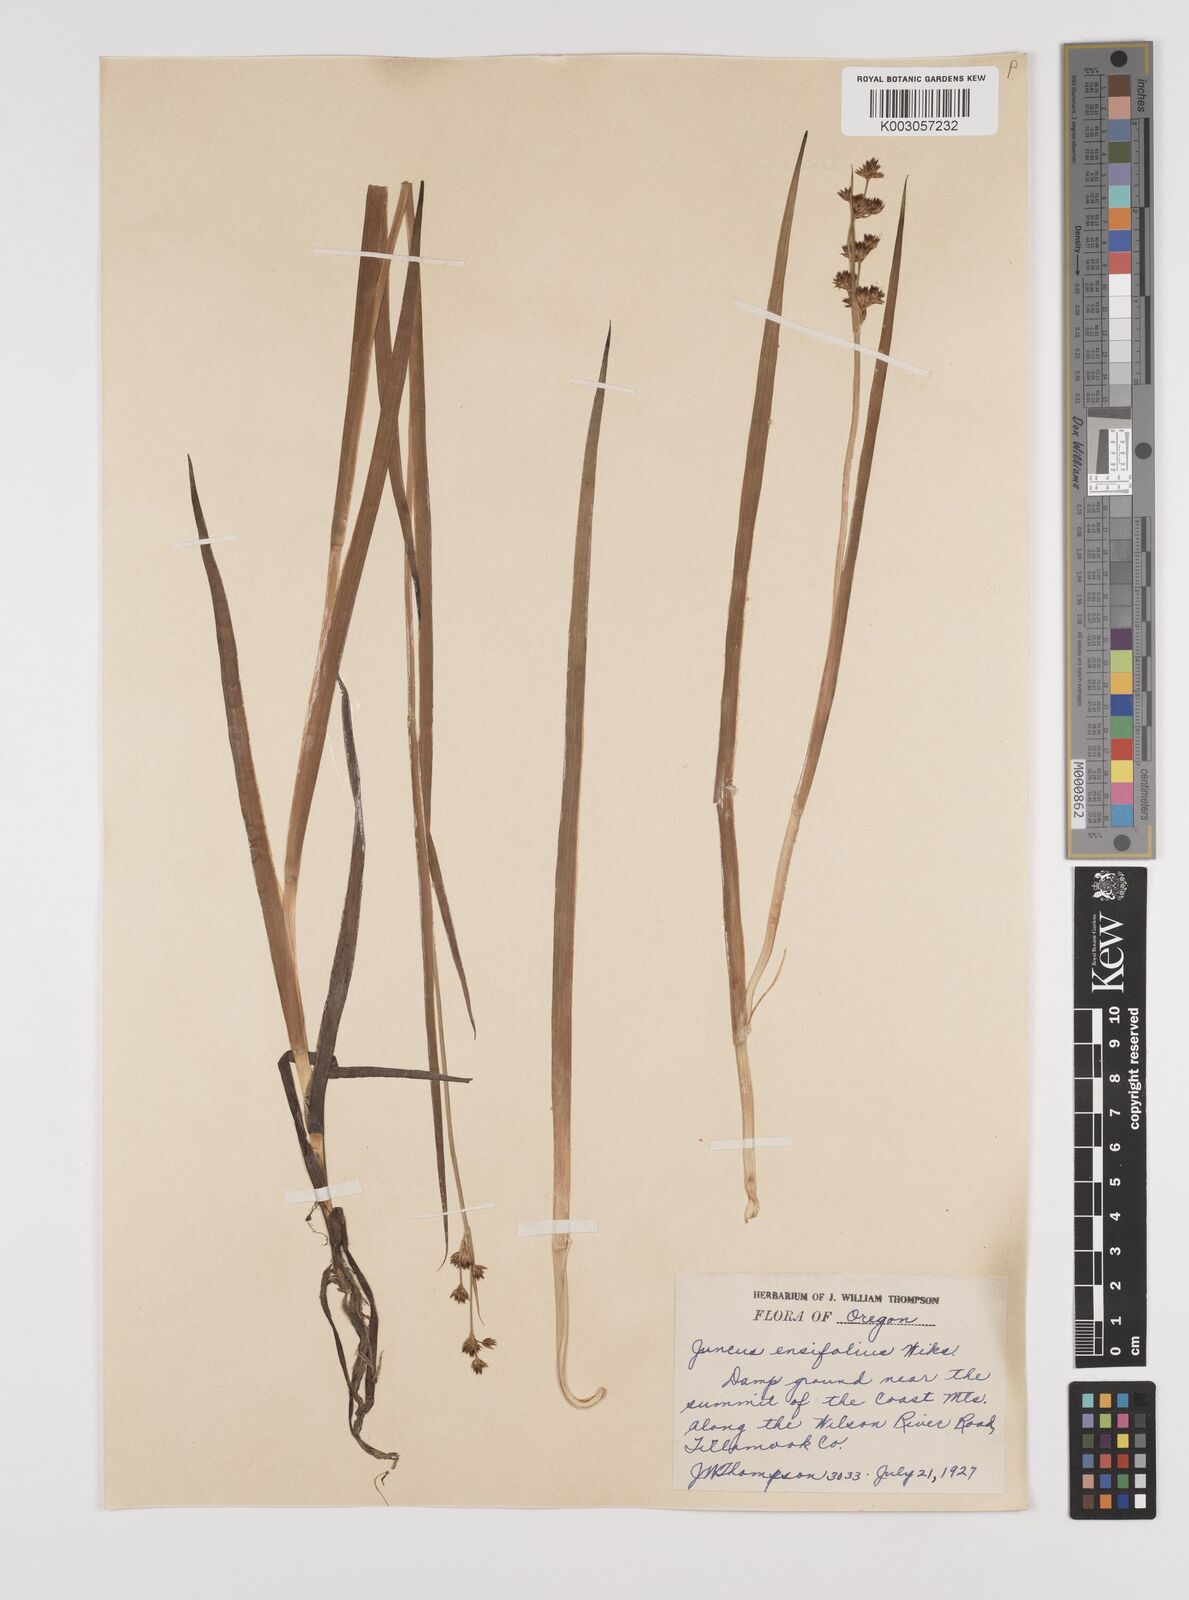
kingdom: Plantae
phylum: Tracheophyta
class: Liliopsida
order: Poales
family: Juncaceae
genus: Juncus
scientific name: Juncus ensifolius
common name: Sword-leaved rush
